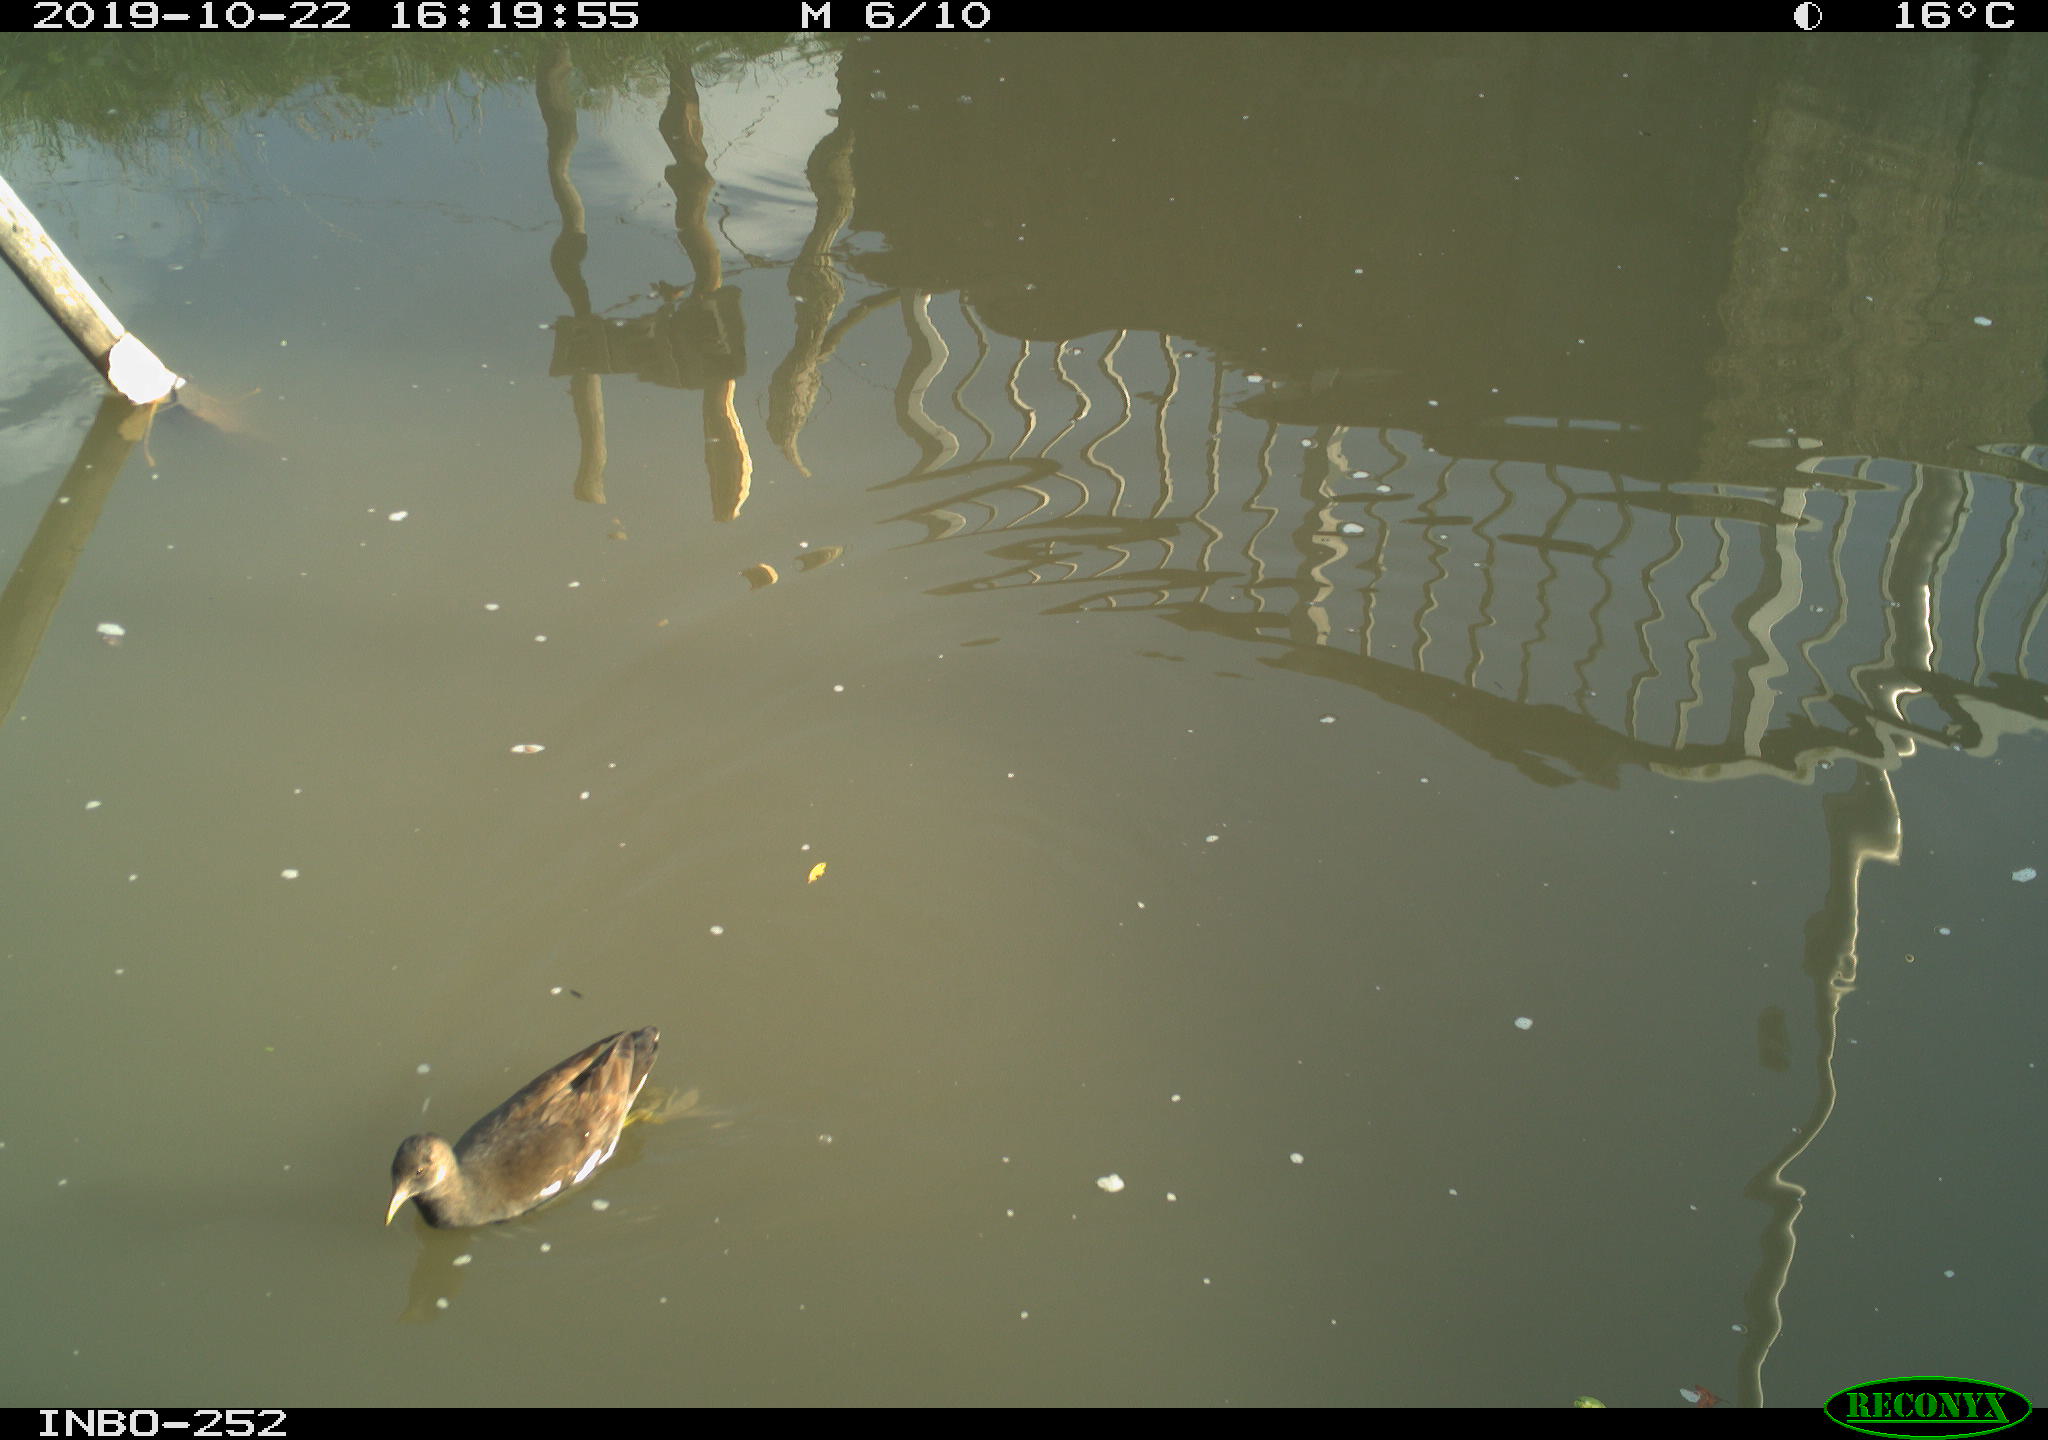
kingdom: Animalia
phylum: Chordata
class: Aves
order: Gruiformes
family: Rallidae
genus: Gallinula
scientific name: Gallinula chloropus
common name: Common moorhen
